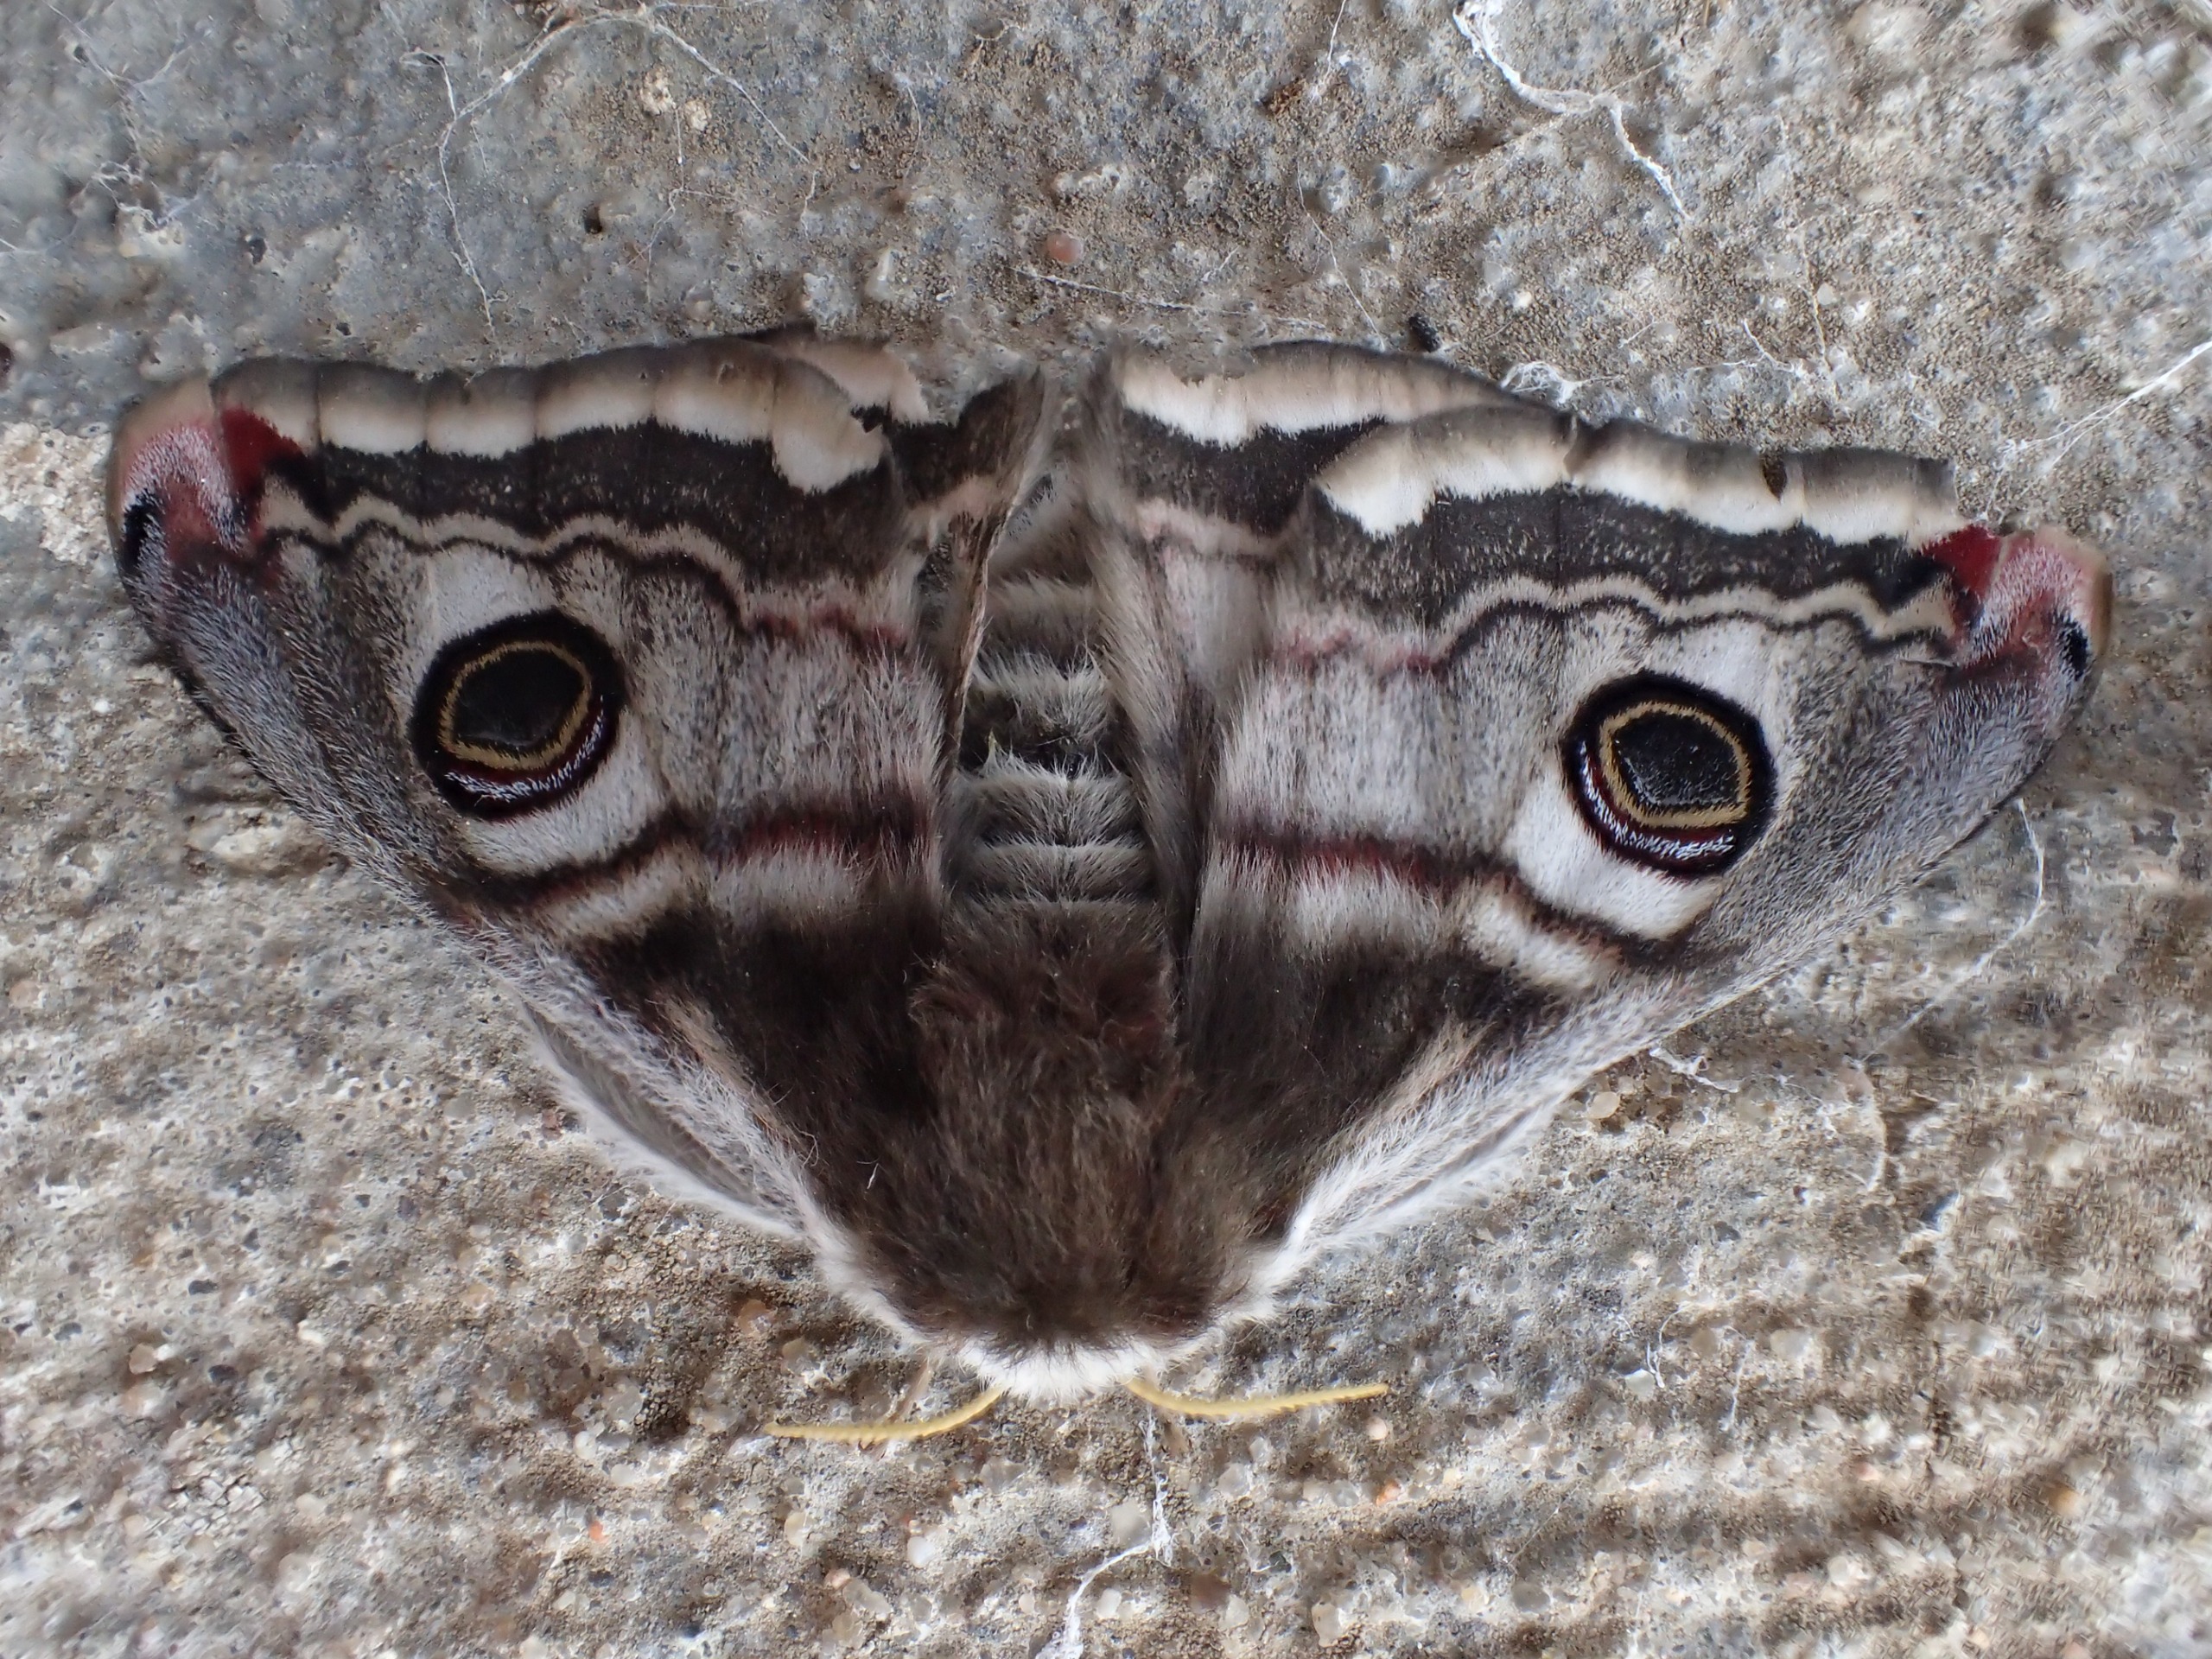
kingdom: Animalia
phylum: Arthropoda
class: Insecta
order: Lepidoptera
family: Saturniidae
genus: Saturnia
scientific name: Saturnia pavonia
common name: Lille natpåfugleøje
